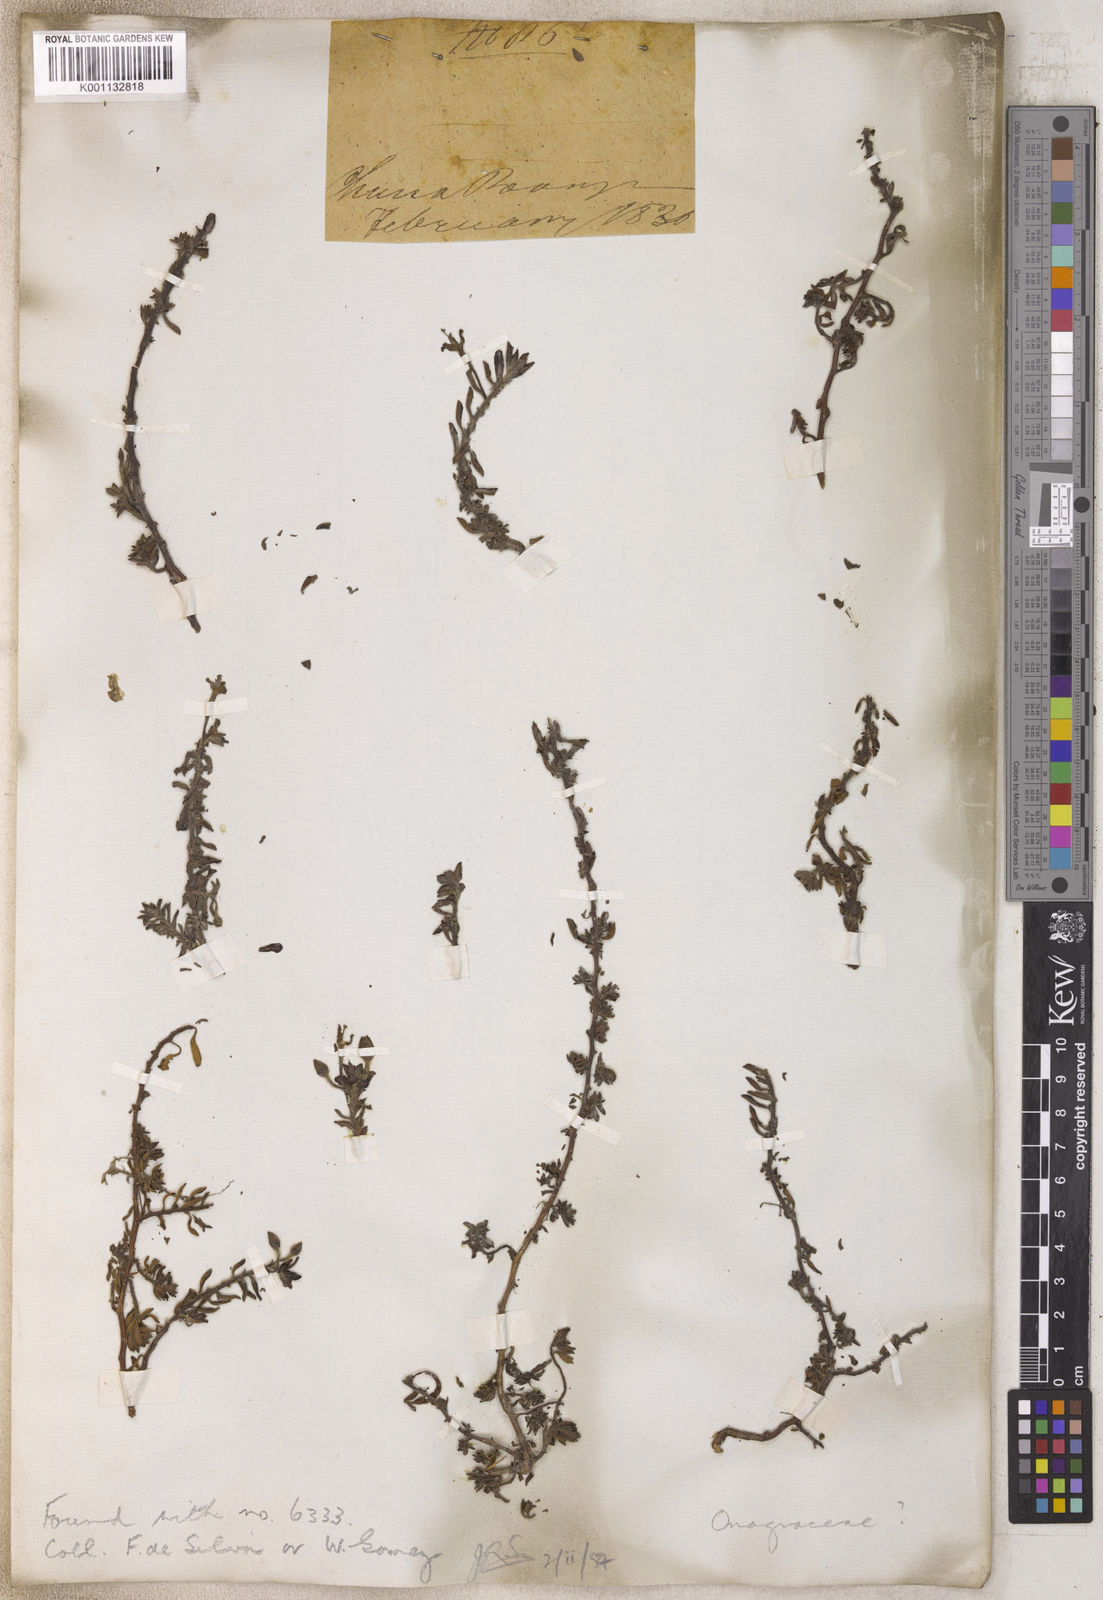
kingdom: Plantae
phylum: Tracheophyta
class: Magnoliopsida
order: Myrtales
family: Onagraceae
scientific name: Onagraceae
